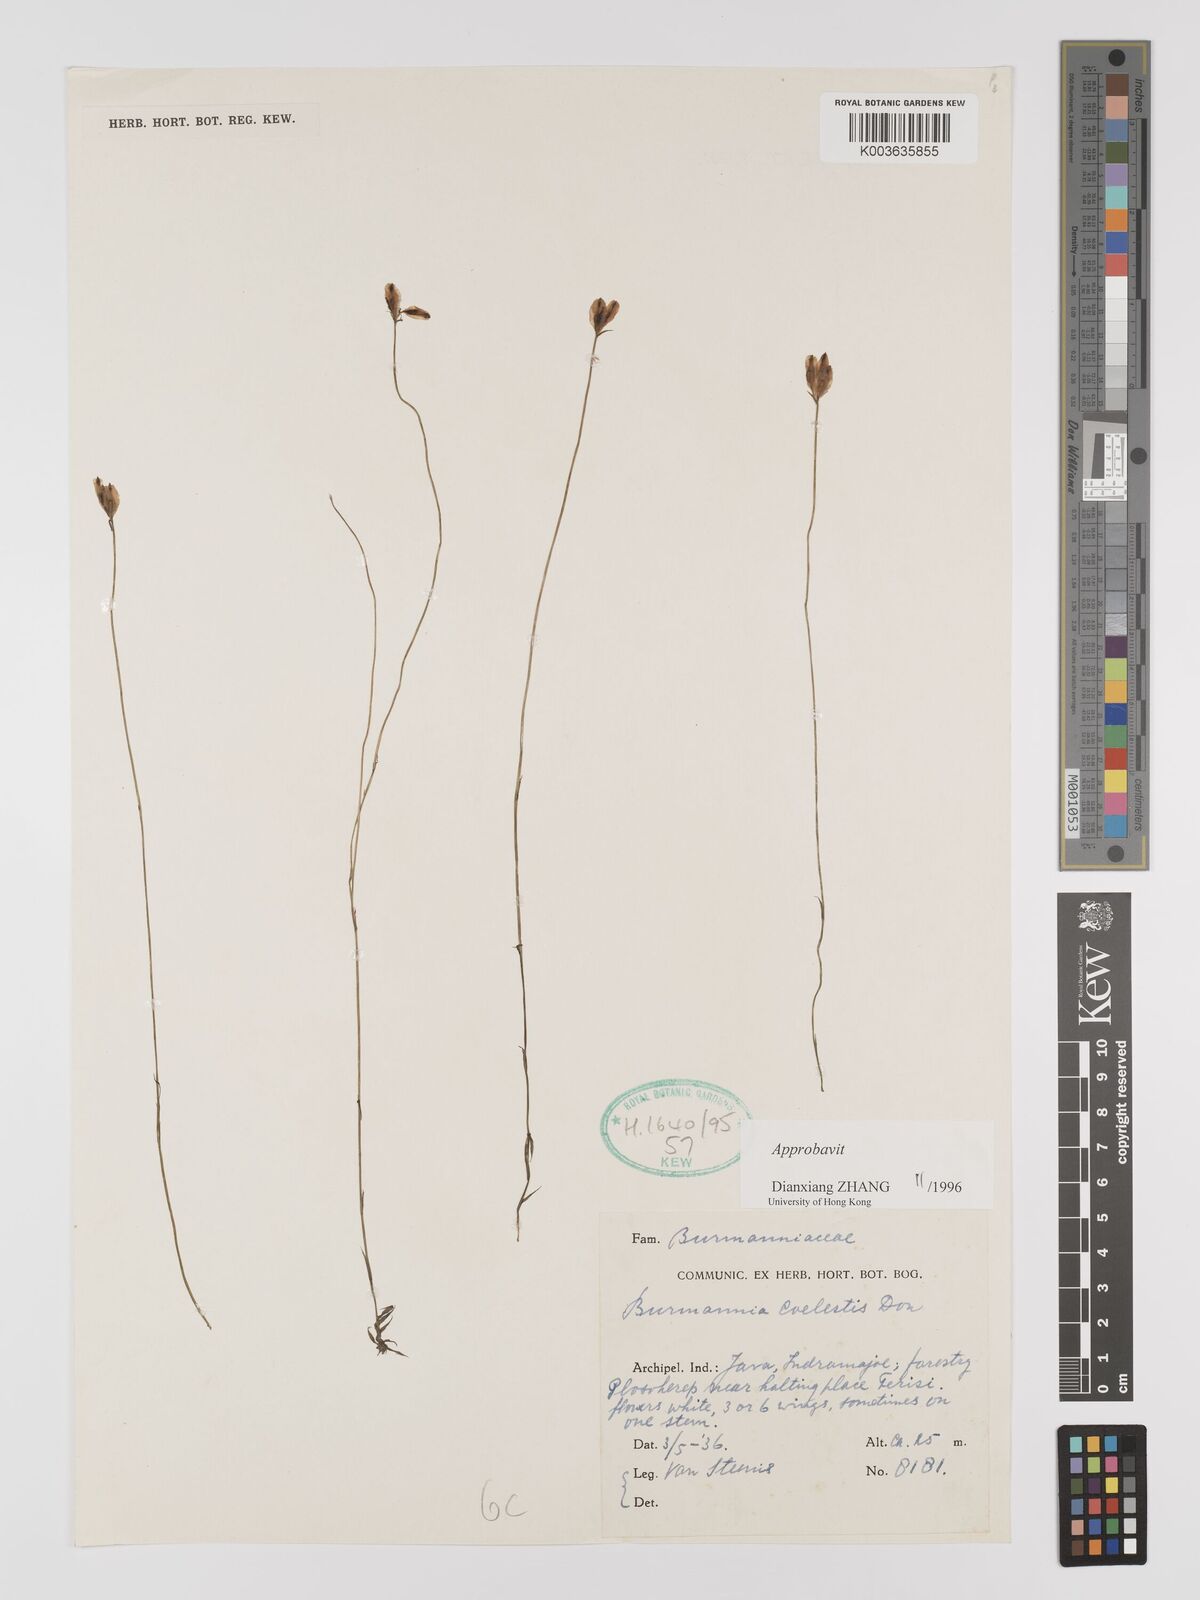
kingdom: Plantae
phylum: Tracheophyta
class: Liliopsida
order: Dioscoreales
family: Burmanniaceae
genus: Burmannia
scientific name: Burmannia coelestis
